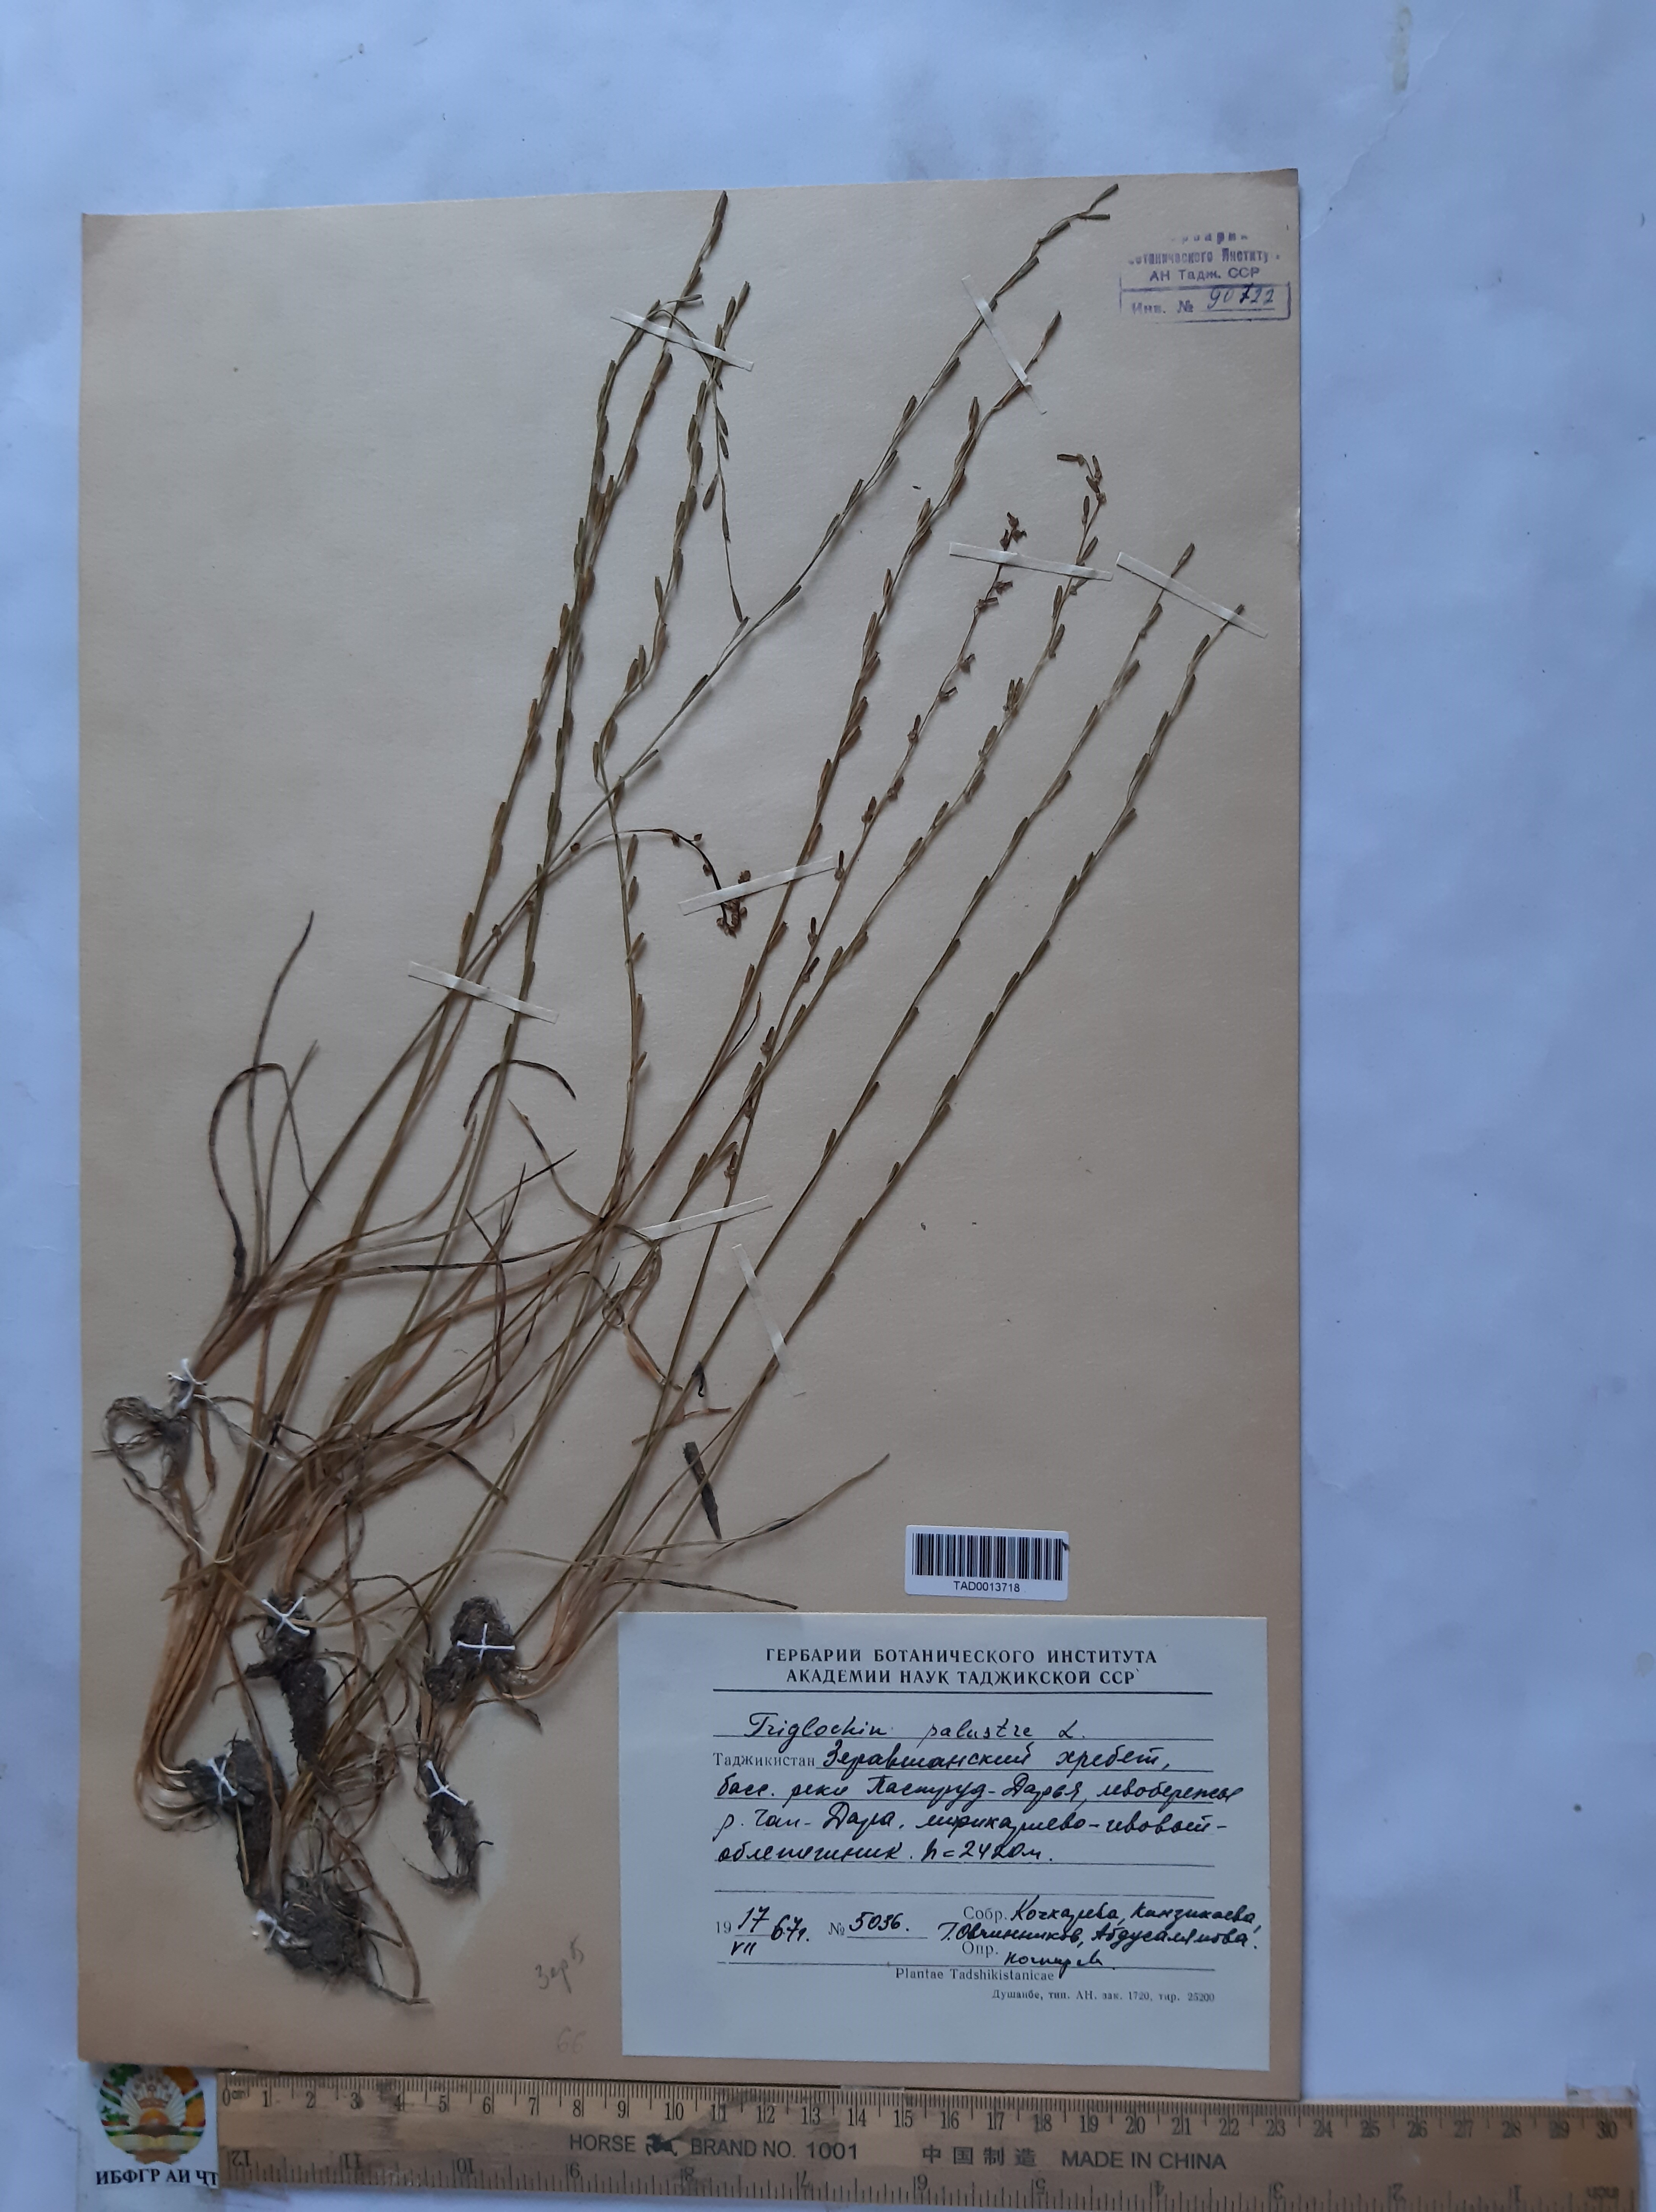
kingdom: Plantae
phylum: Tracheophyta
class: Liliopsida
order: Alismatales
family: Juncaginaceae
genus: Triglochin
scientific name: Triglochin palustris
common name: Marsh arrowgrass
